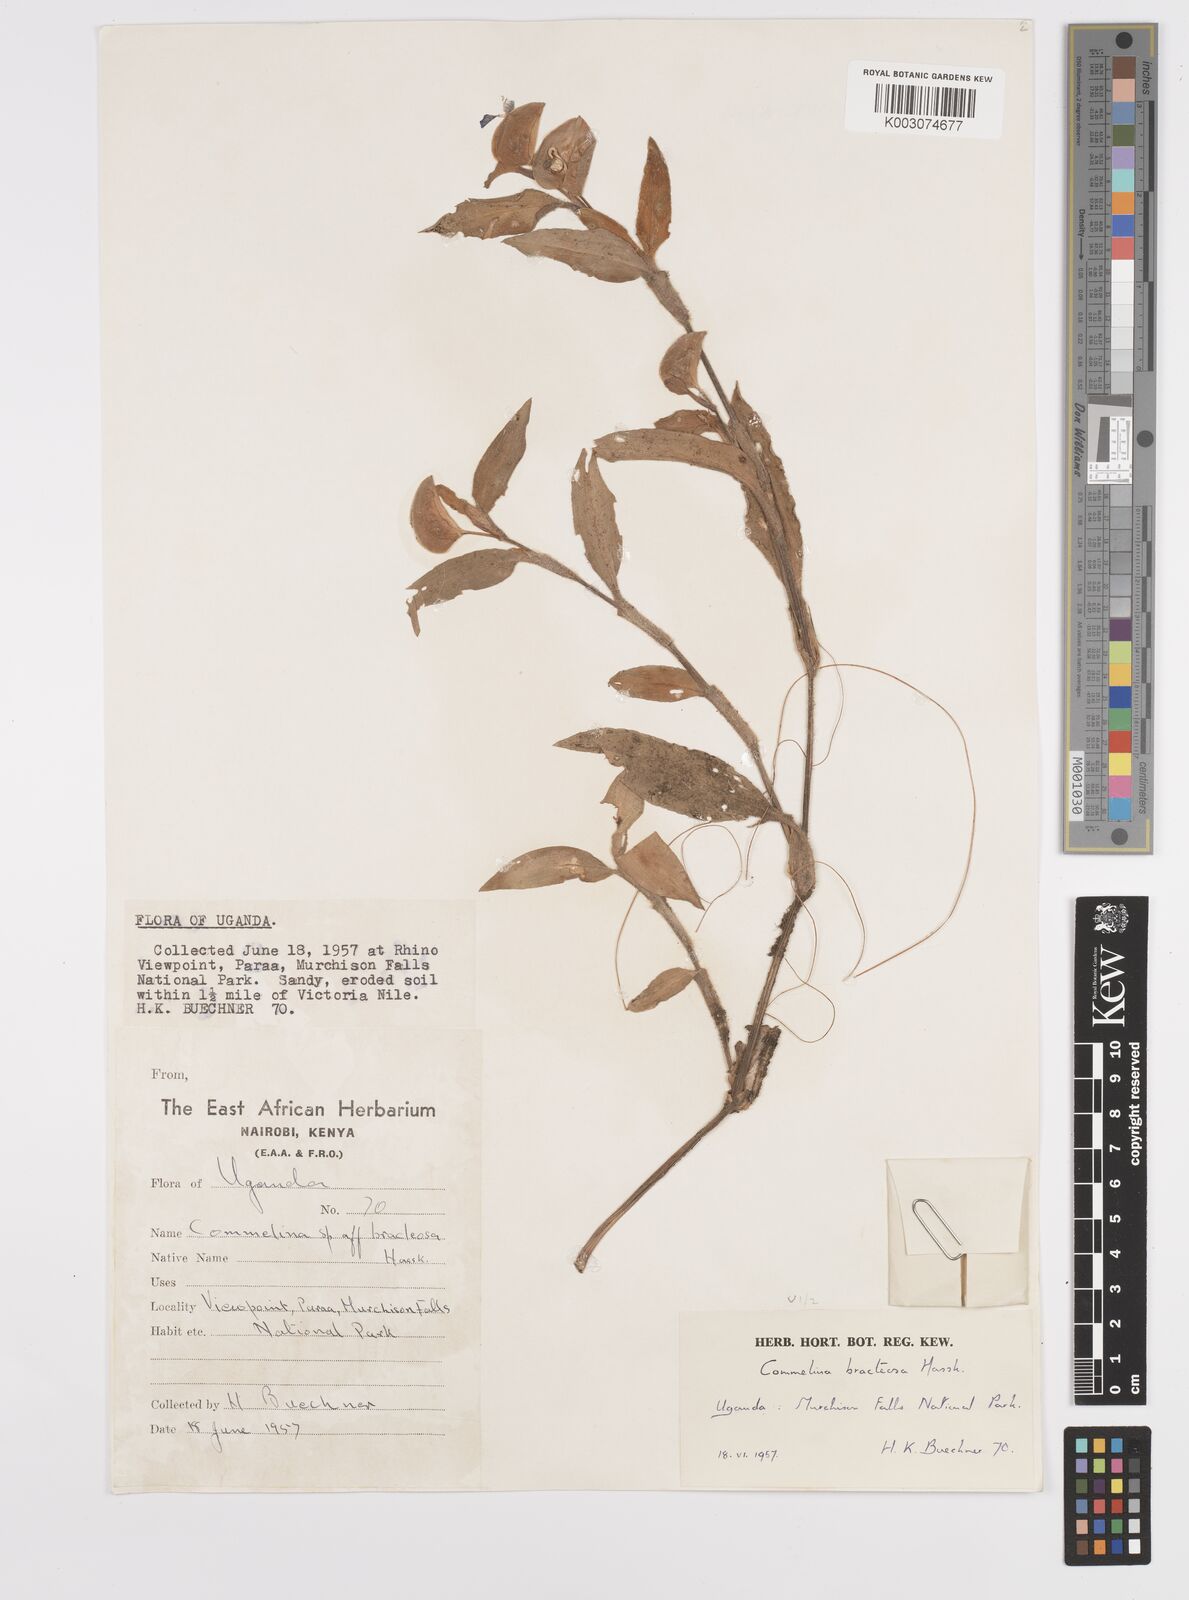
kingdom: Plantae
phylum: Tracheophyta
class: Liliopsida
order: Commelinales
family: Commelinaceae
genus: Commelina
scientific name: Commelina bracteosa
